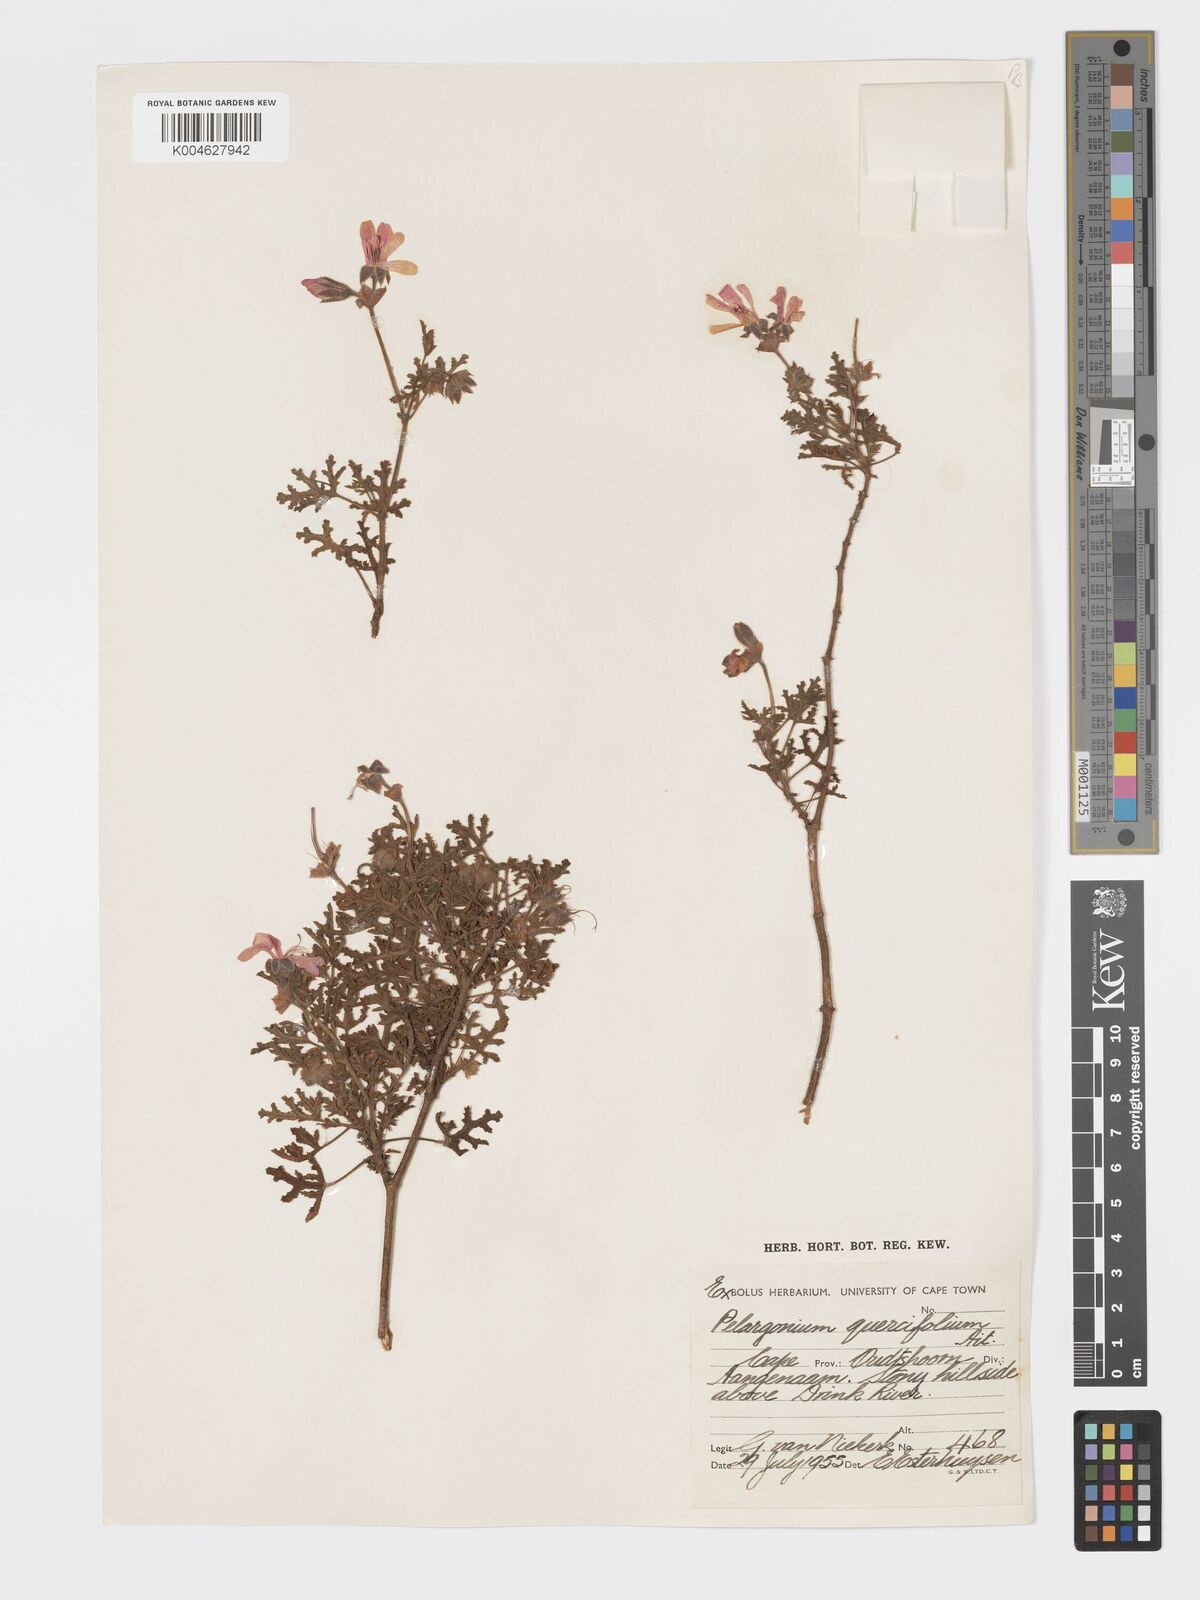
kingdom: Plantae
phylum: Tracheophyta
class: Magnoliopsida
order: Geraniales
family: Geraniaceae
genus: Pelargonium
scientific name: Pelargonium quercifolium
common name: Oakleaf geranium
